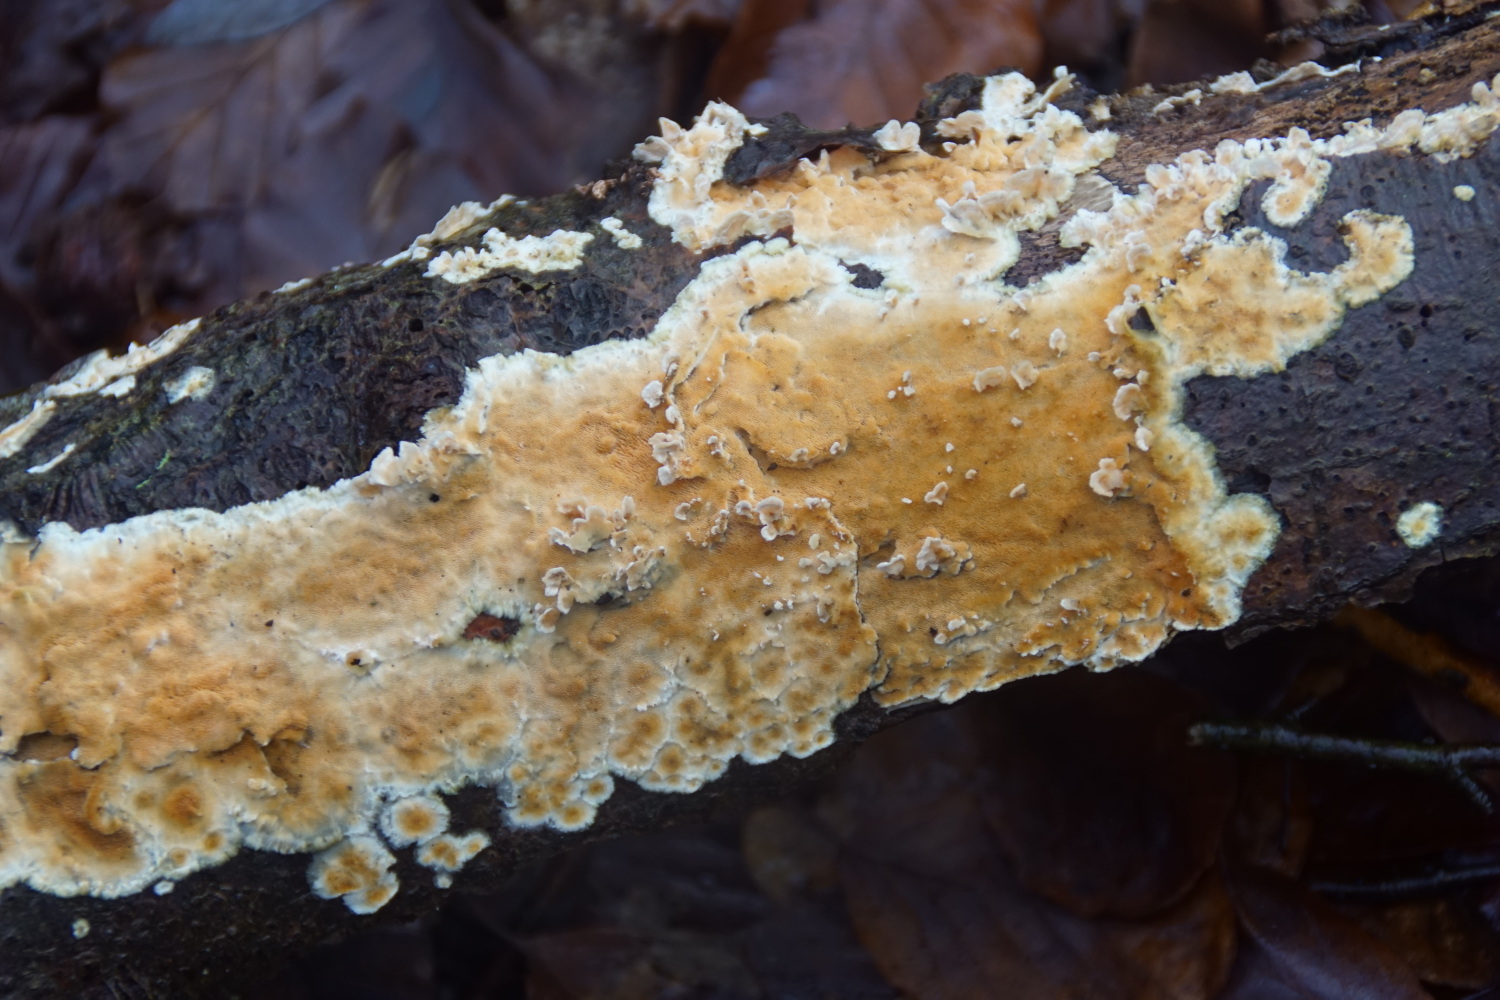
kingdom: Fungi
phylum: Basidiomycota
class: Agaricomycetes
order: Polyporales
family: Steccherinaceae
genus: Steccherinum
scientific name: Steccherinum ochraceum
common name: almindelig skønpig
